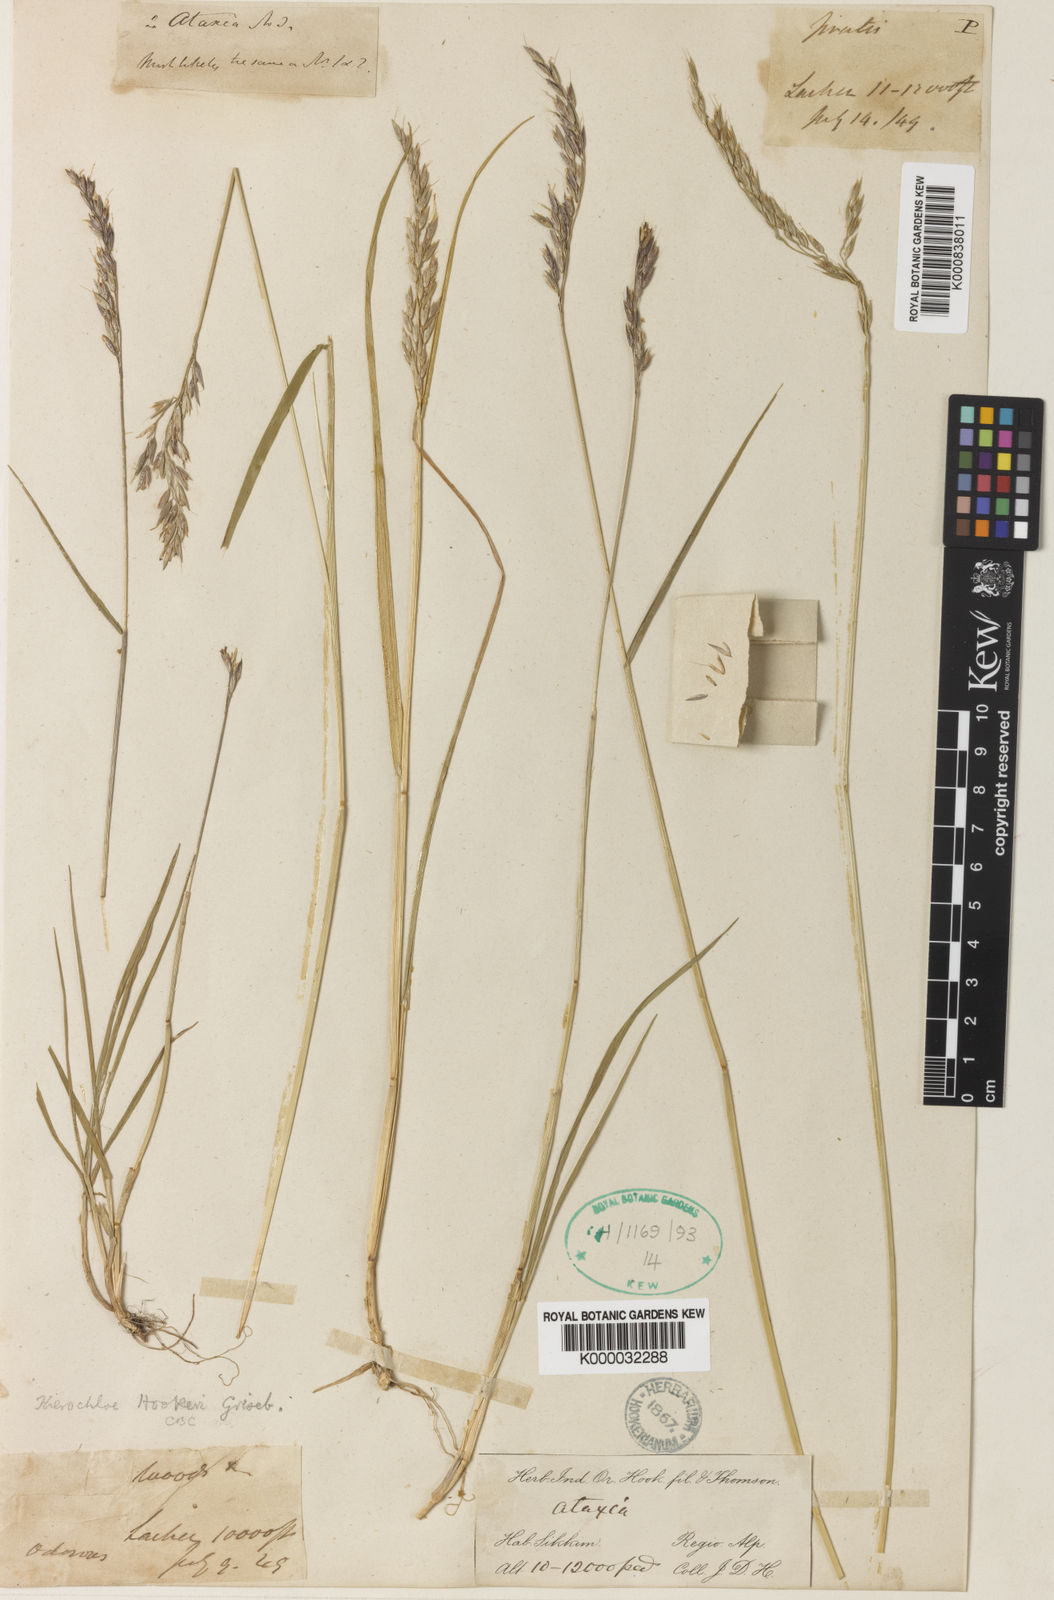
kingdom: Plantae
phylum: Tracheophyta
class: Liliopsida
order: Poales
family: Poaceae
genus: Anthoxanthum
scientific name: Anthoxanthum hookeri
